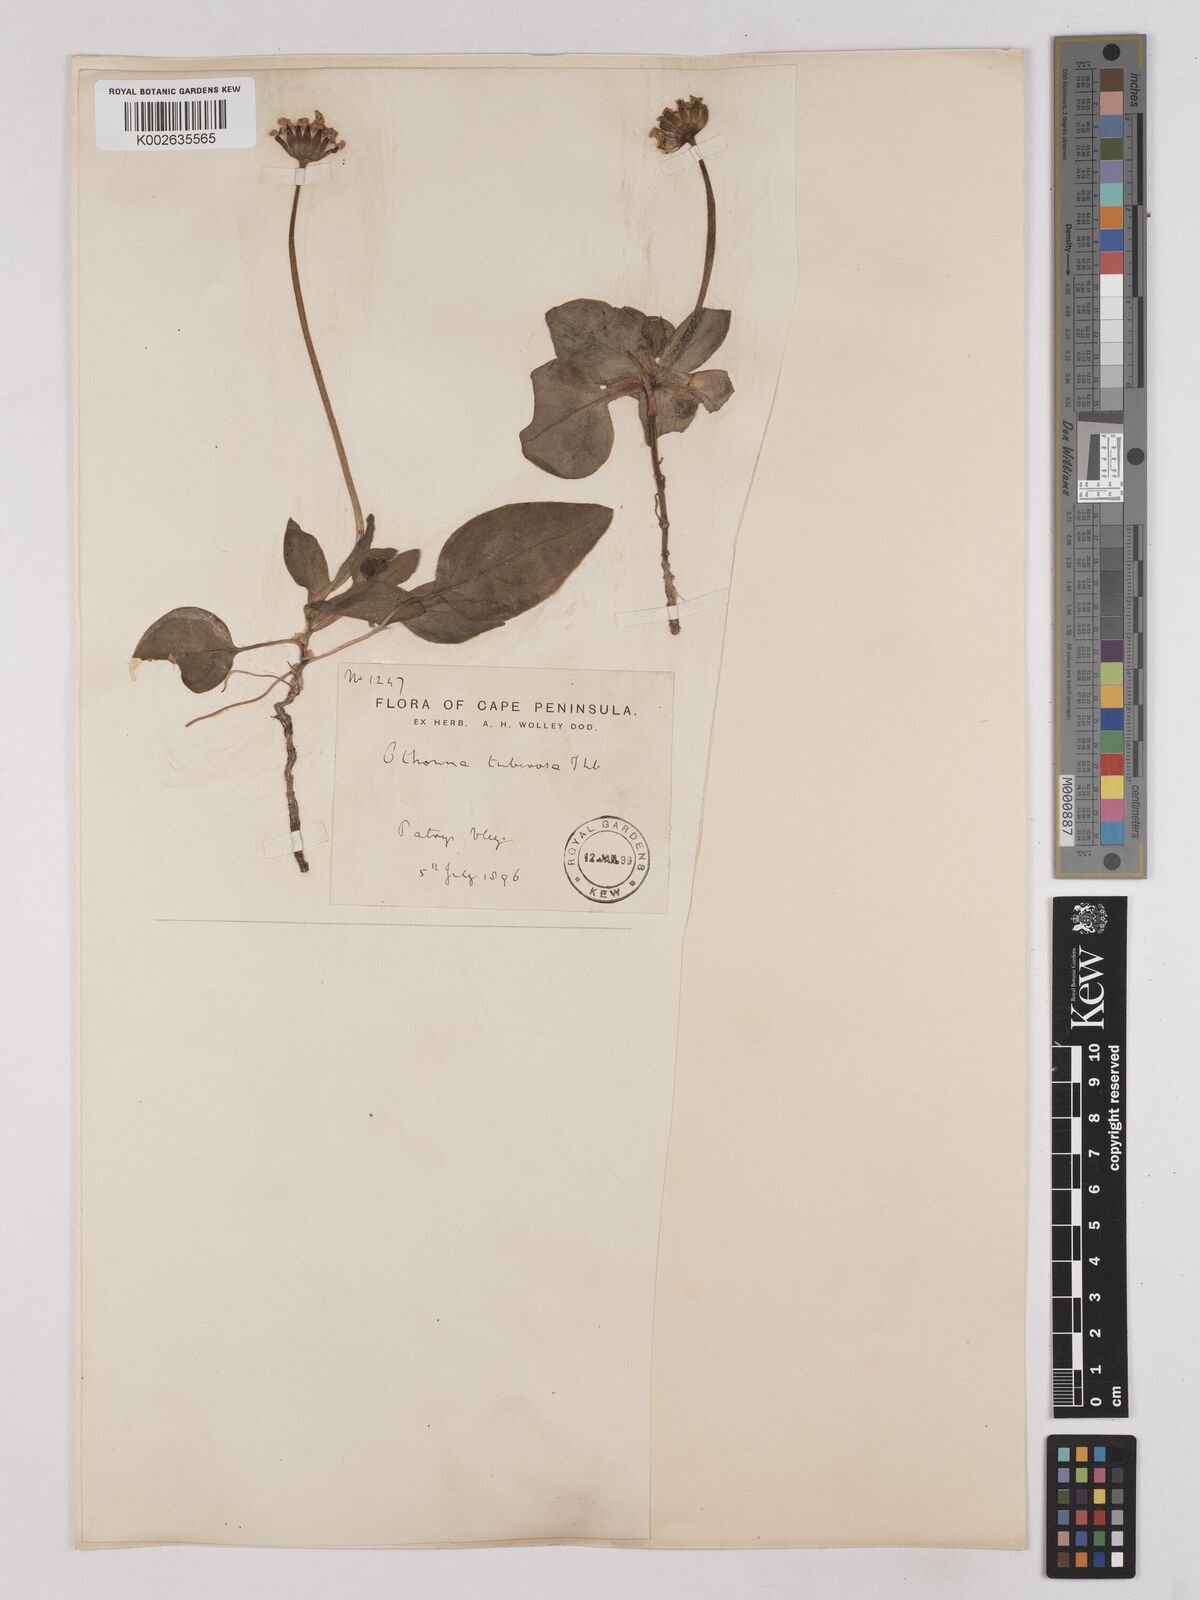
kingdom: Plantae
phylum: Tracheophyta
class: Magnoliopsida
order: Asterales
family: Asteraceae
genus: Othonna
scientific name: Othonna bulbosa
